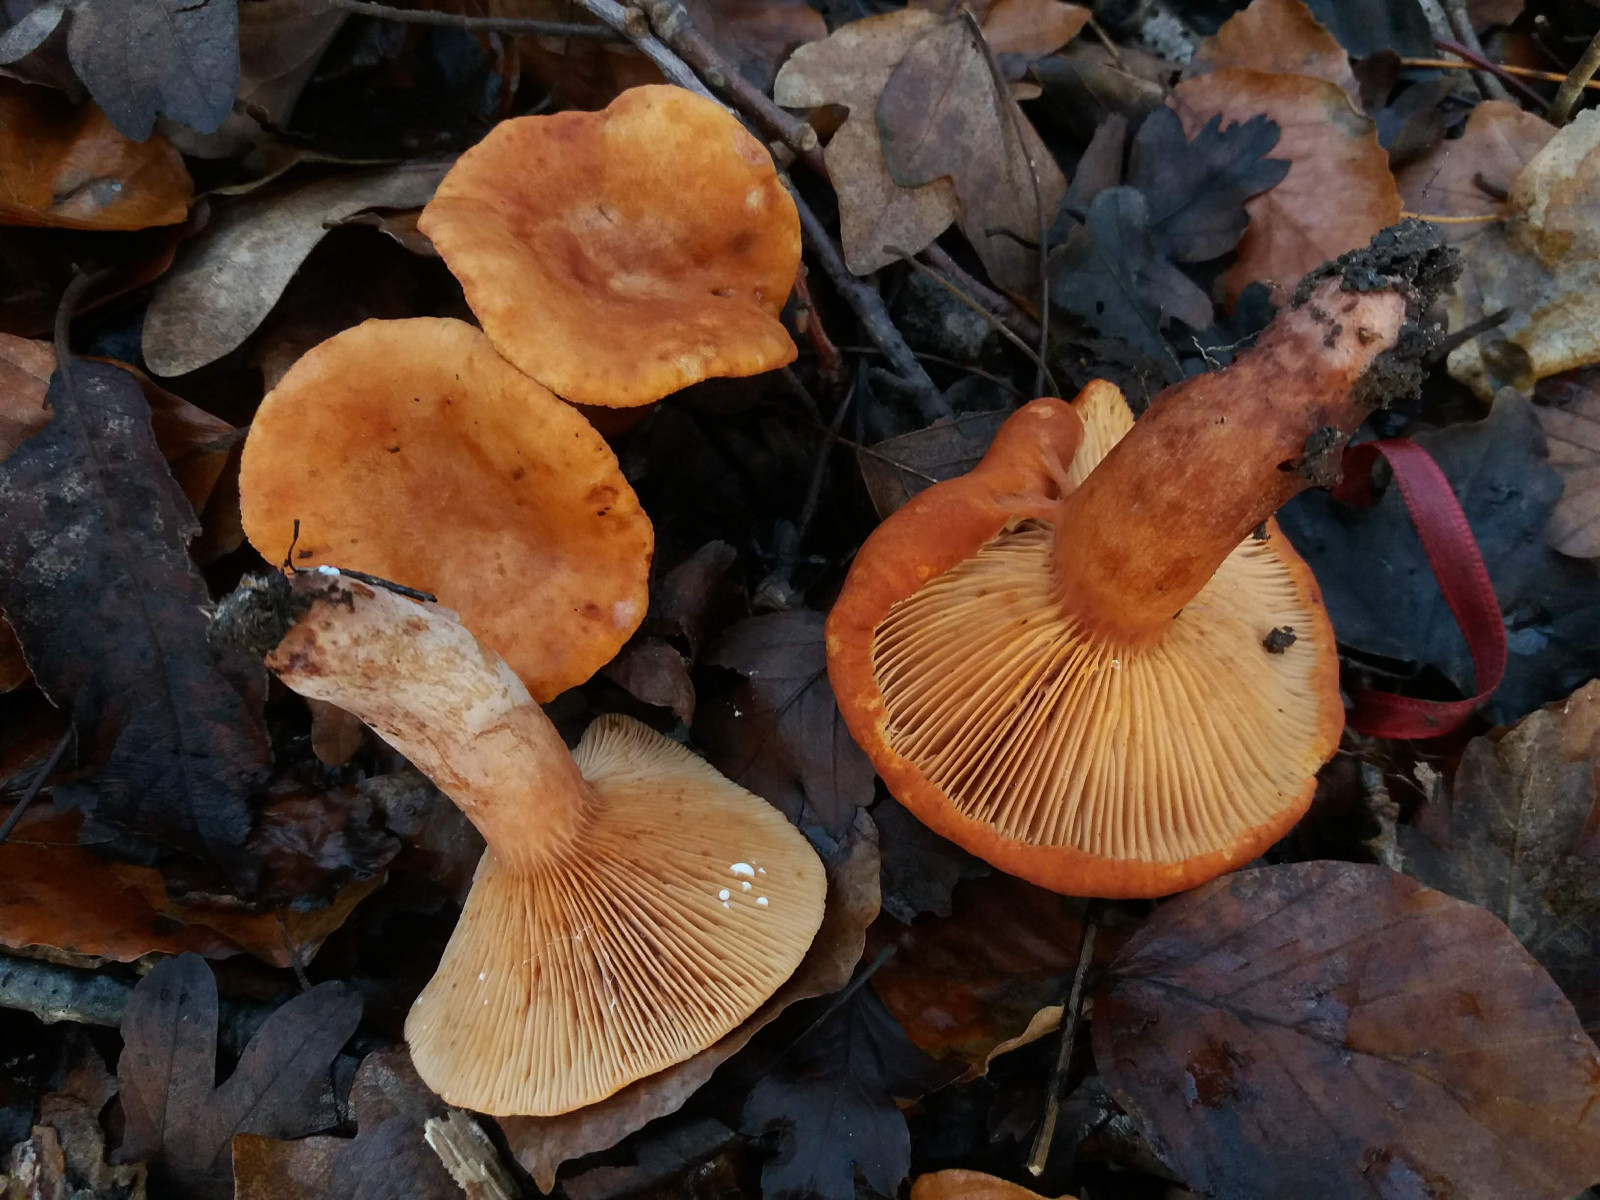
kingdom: Fungi
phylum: Basidiomycota
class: Agaricomycetes
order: Russulales
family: Russulaceae
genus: Lactarius
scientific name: Lactarius fulvissimus
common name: ræve-mælkehat
